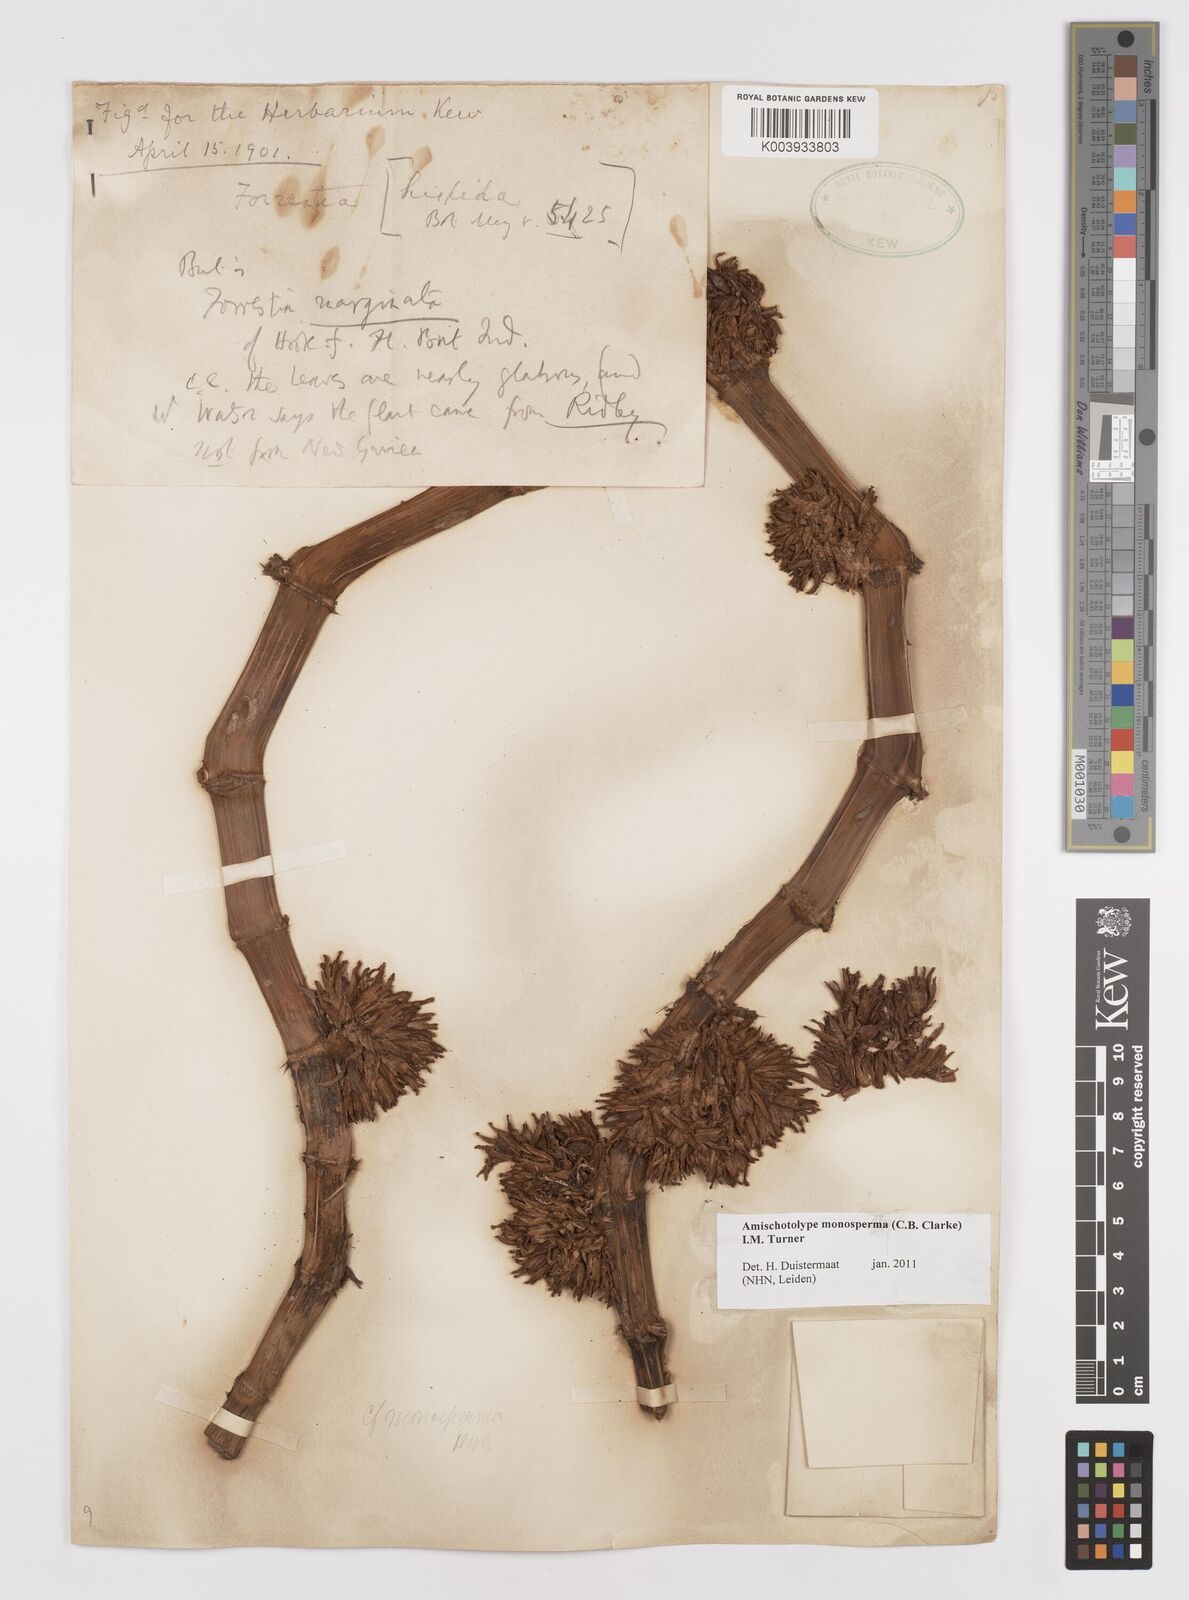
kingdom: Plantae
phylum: Tracheophyta
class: Liliopsida
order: Commelinales
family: Commelinaceae
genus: Amischotolype
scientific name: Amischotolype monosperma
